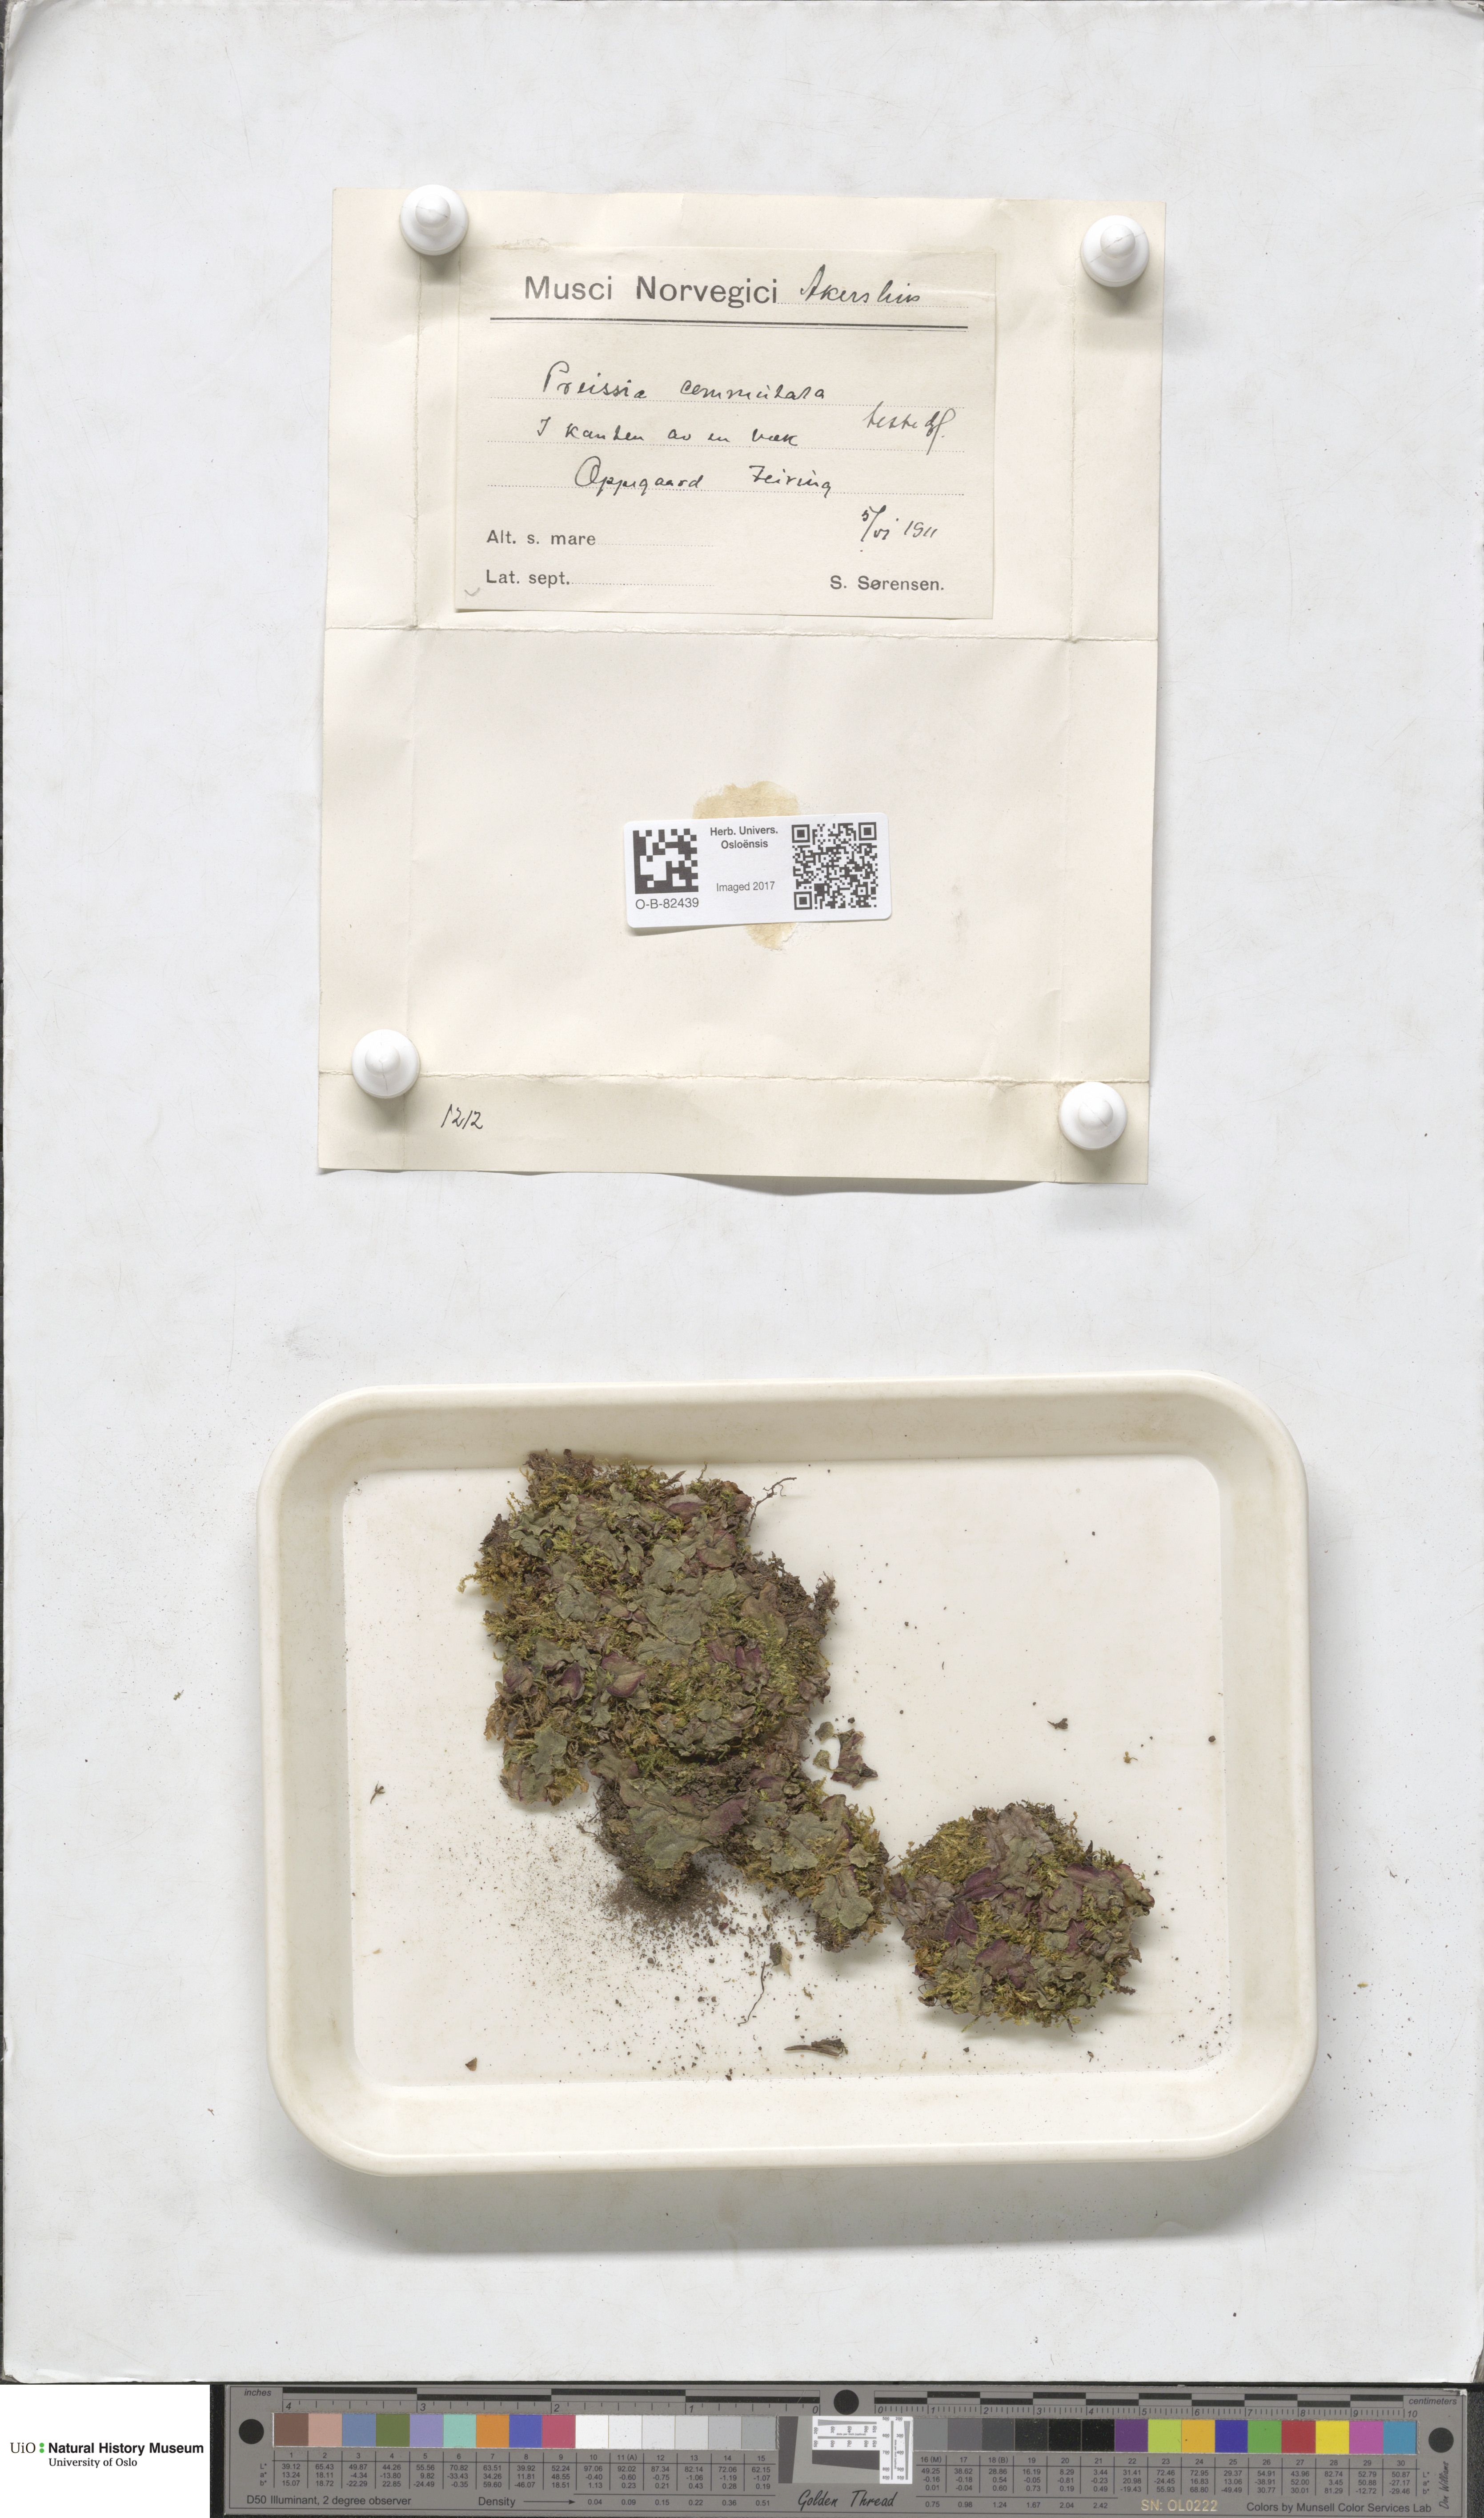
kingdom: Plantae
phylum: Marchantiophyta
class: Marchantiopsida
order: Marchantiales
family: Marchantiaceae
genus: Marchantia
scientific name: Marchantia quadrata
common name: Narrow mushroom-headed liverwort
